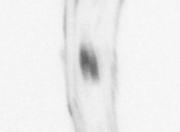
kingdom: Animalia
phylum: Chaetognatha
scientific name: Chaetognatha
